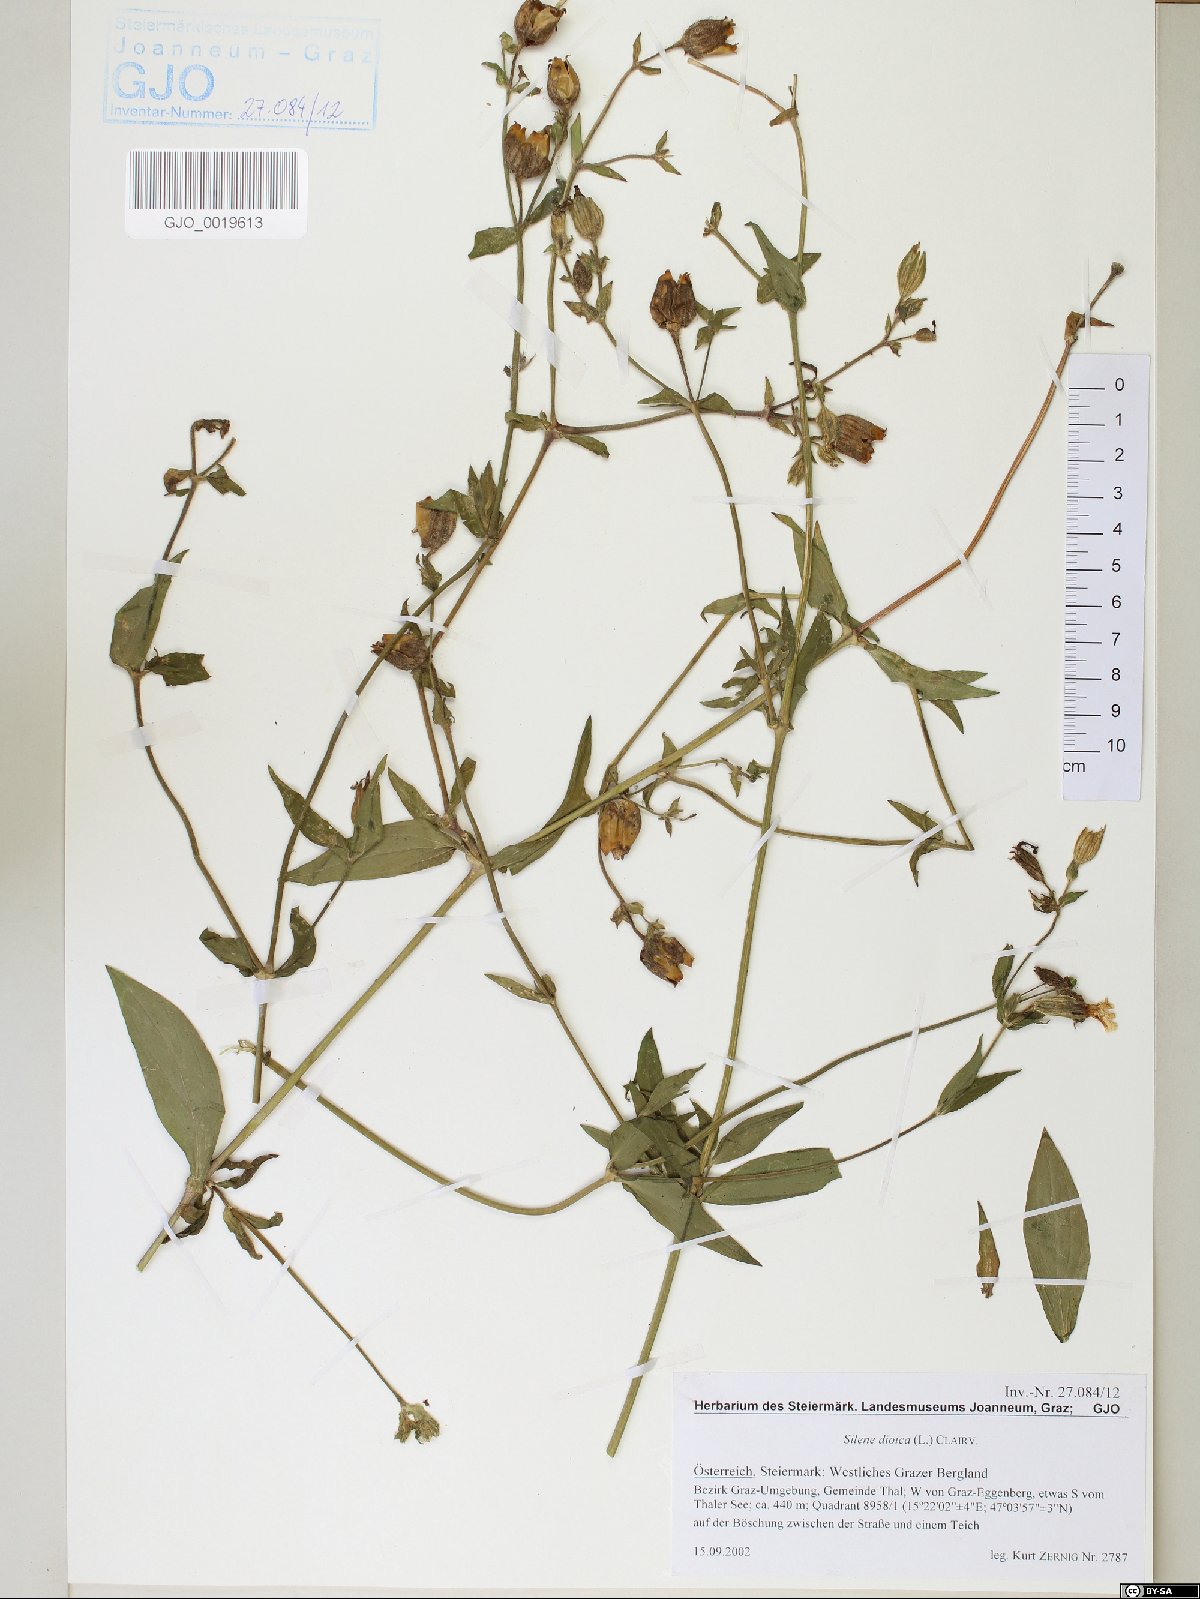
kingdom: Plantae
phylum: Tracheophyta
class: Magnoliopsida
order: Caryophyllales
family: Caryophyllaceae
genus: Silene
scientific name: Silene dioica
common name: Red campion
